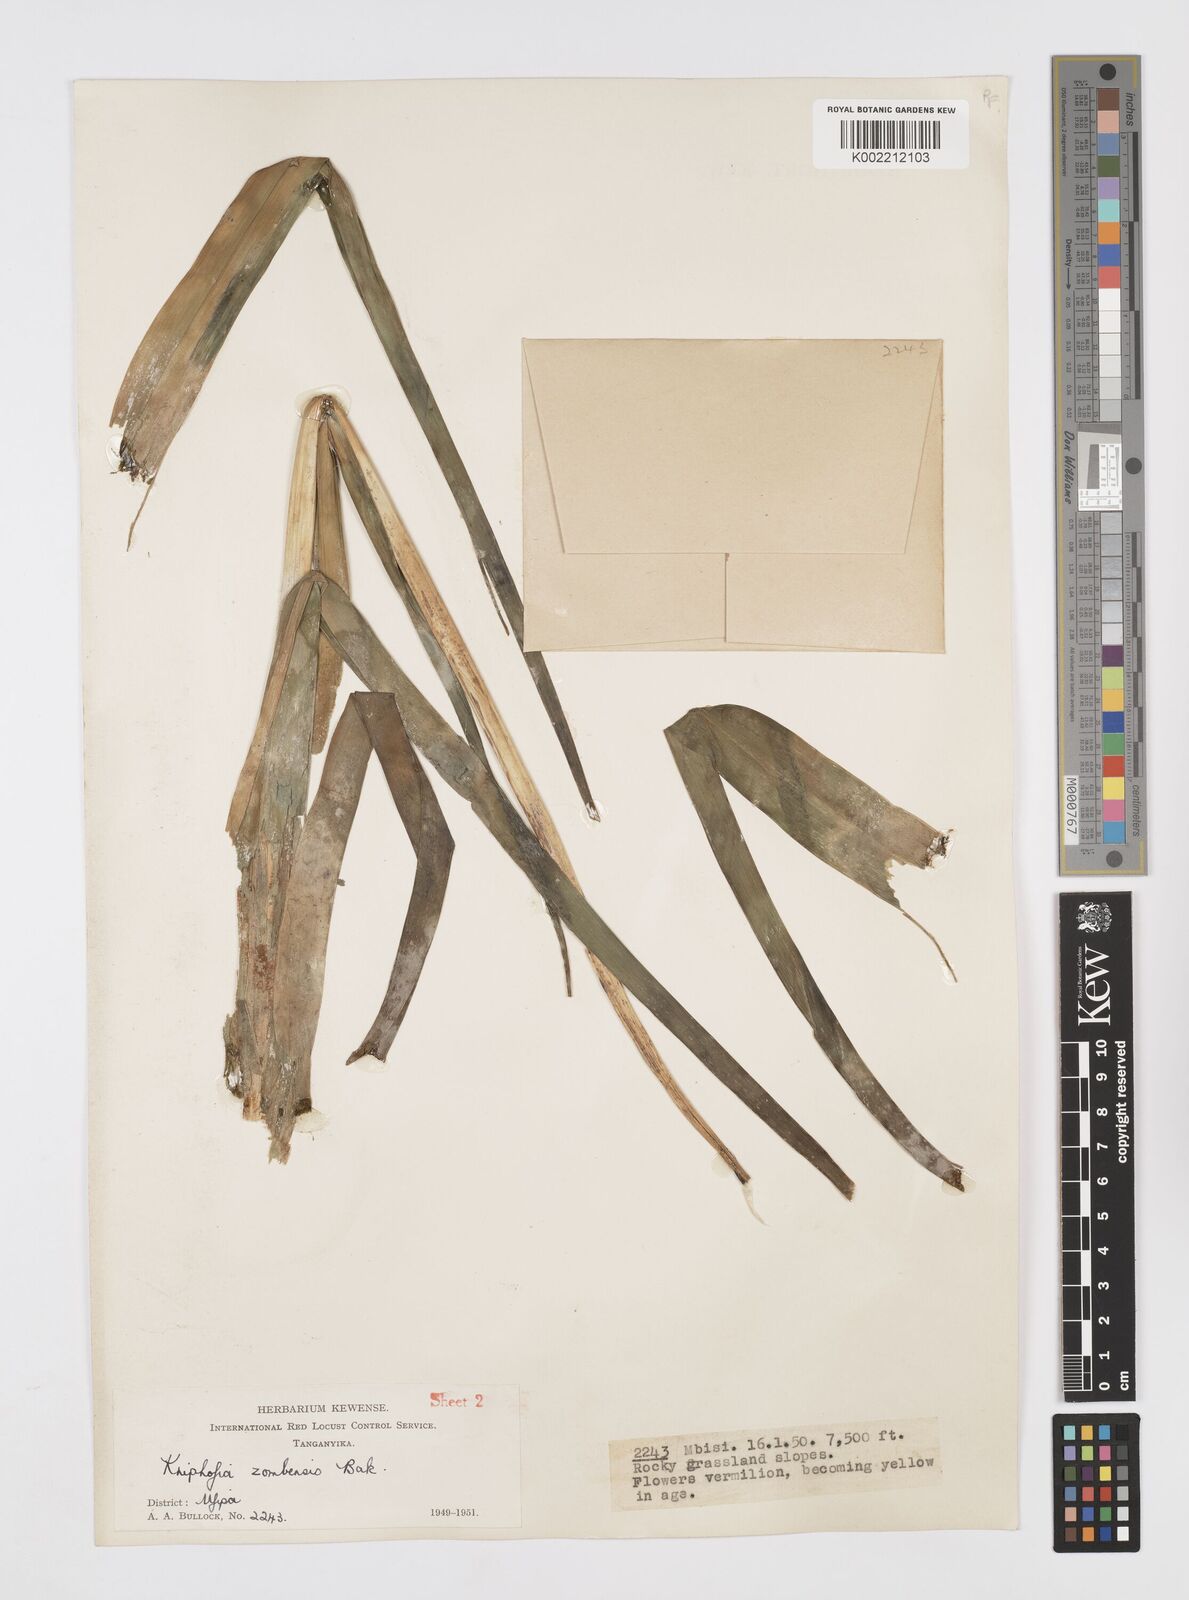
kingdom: Plantae
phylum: Tracheophyta
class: Liliopsida
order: Asparagales
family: Asphodelaceae
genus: Kniphofia
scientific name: Kniphofia grantii
